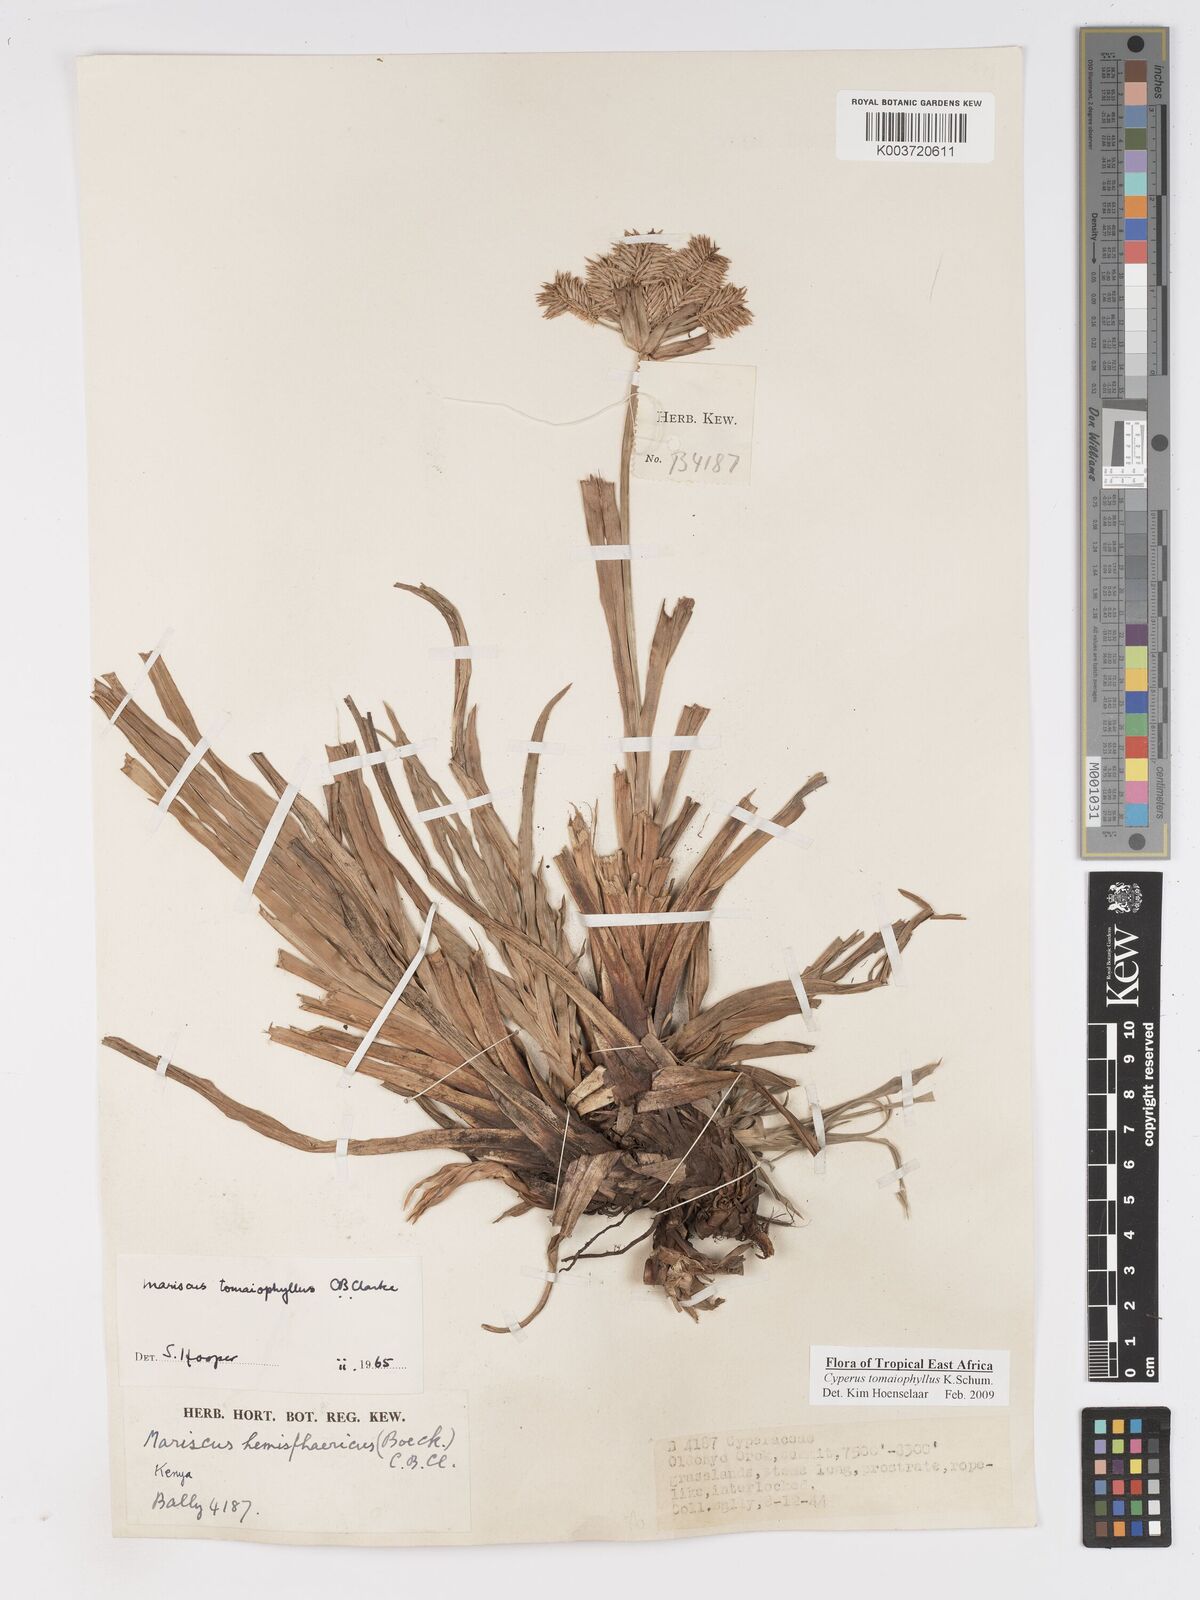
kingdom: Plantae
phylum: Tracheophyta
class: Liliopsida
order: Poales
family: Cyperaceae
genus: Cyperus
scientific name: Cyperus tomaiophyllus
